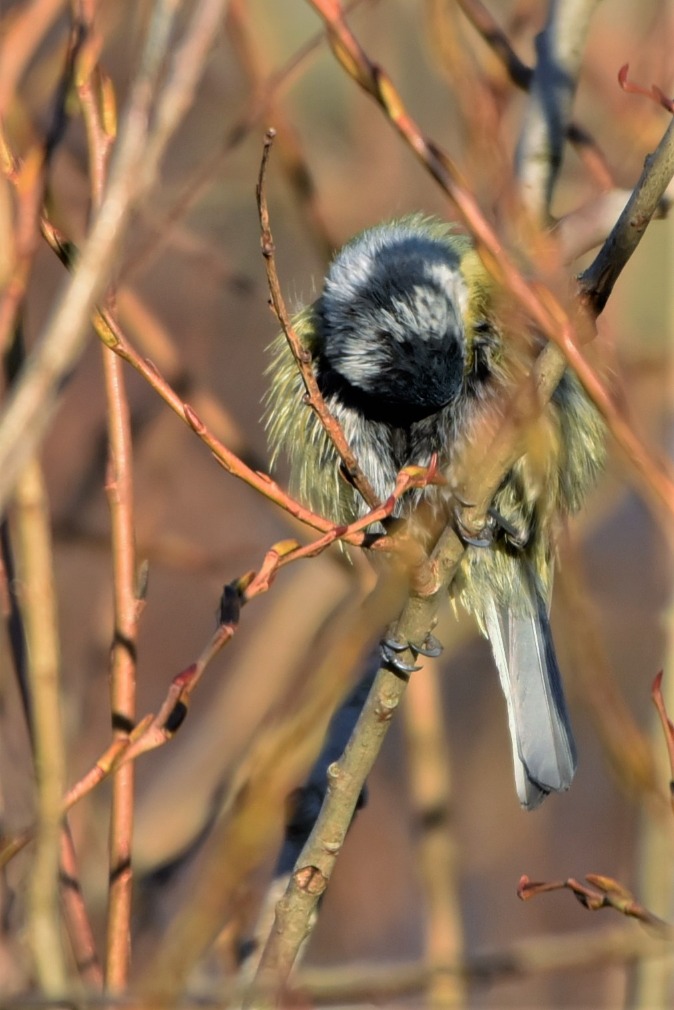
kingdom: Animalia
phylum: Chordata
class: Aves
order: Passeriformes
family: Paridae
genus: Cyanistes
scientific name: Cyanistes caeruleus
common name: Blåmejse
